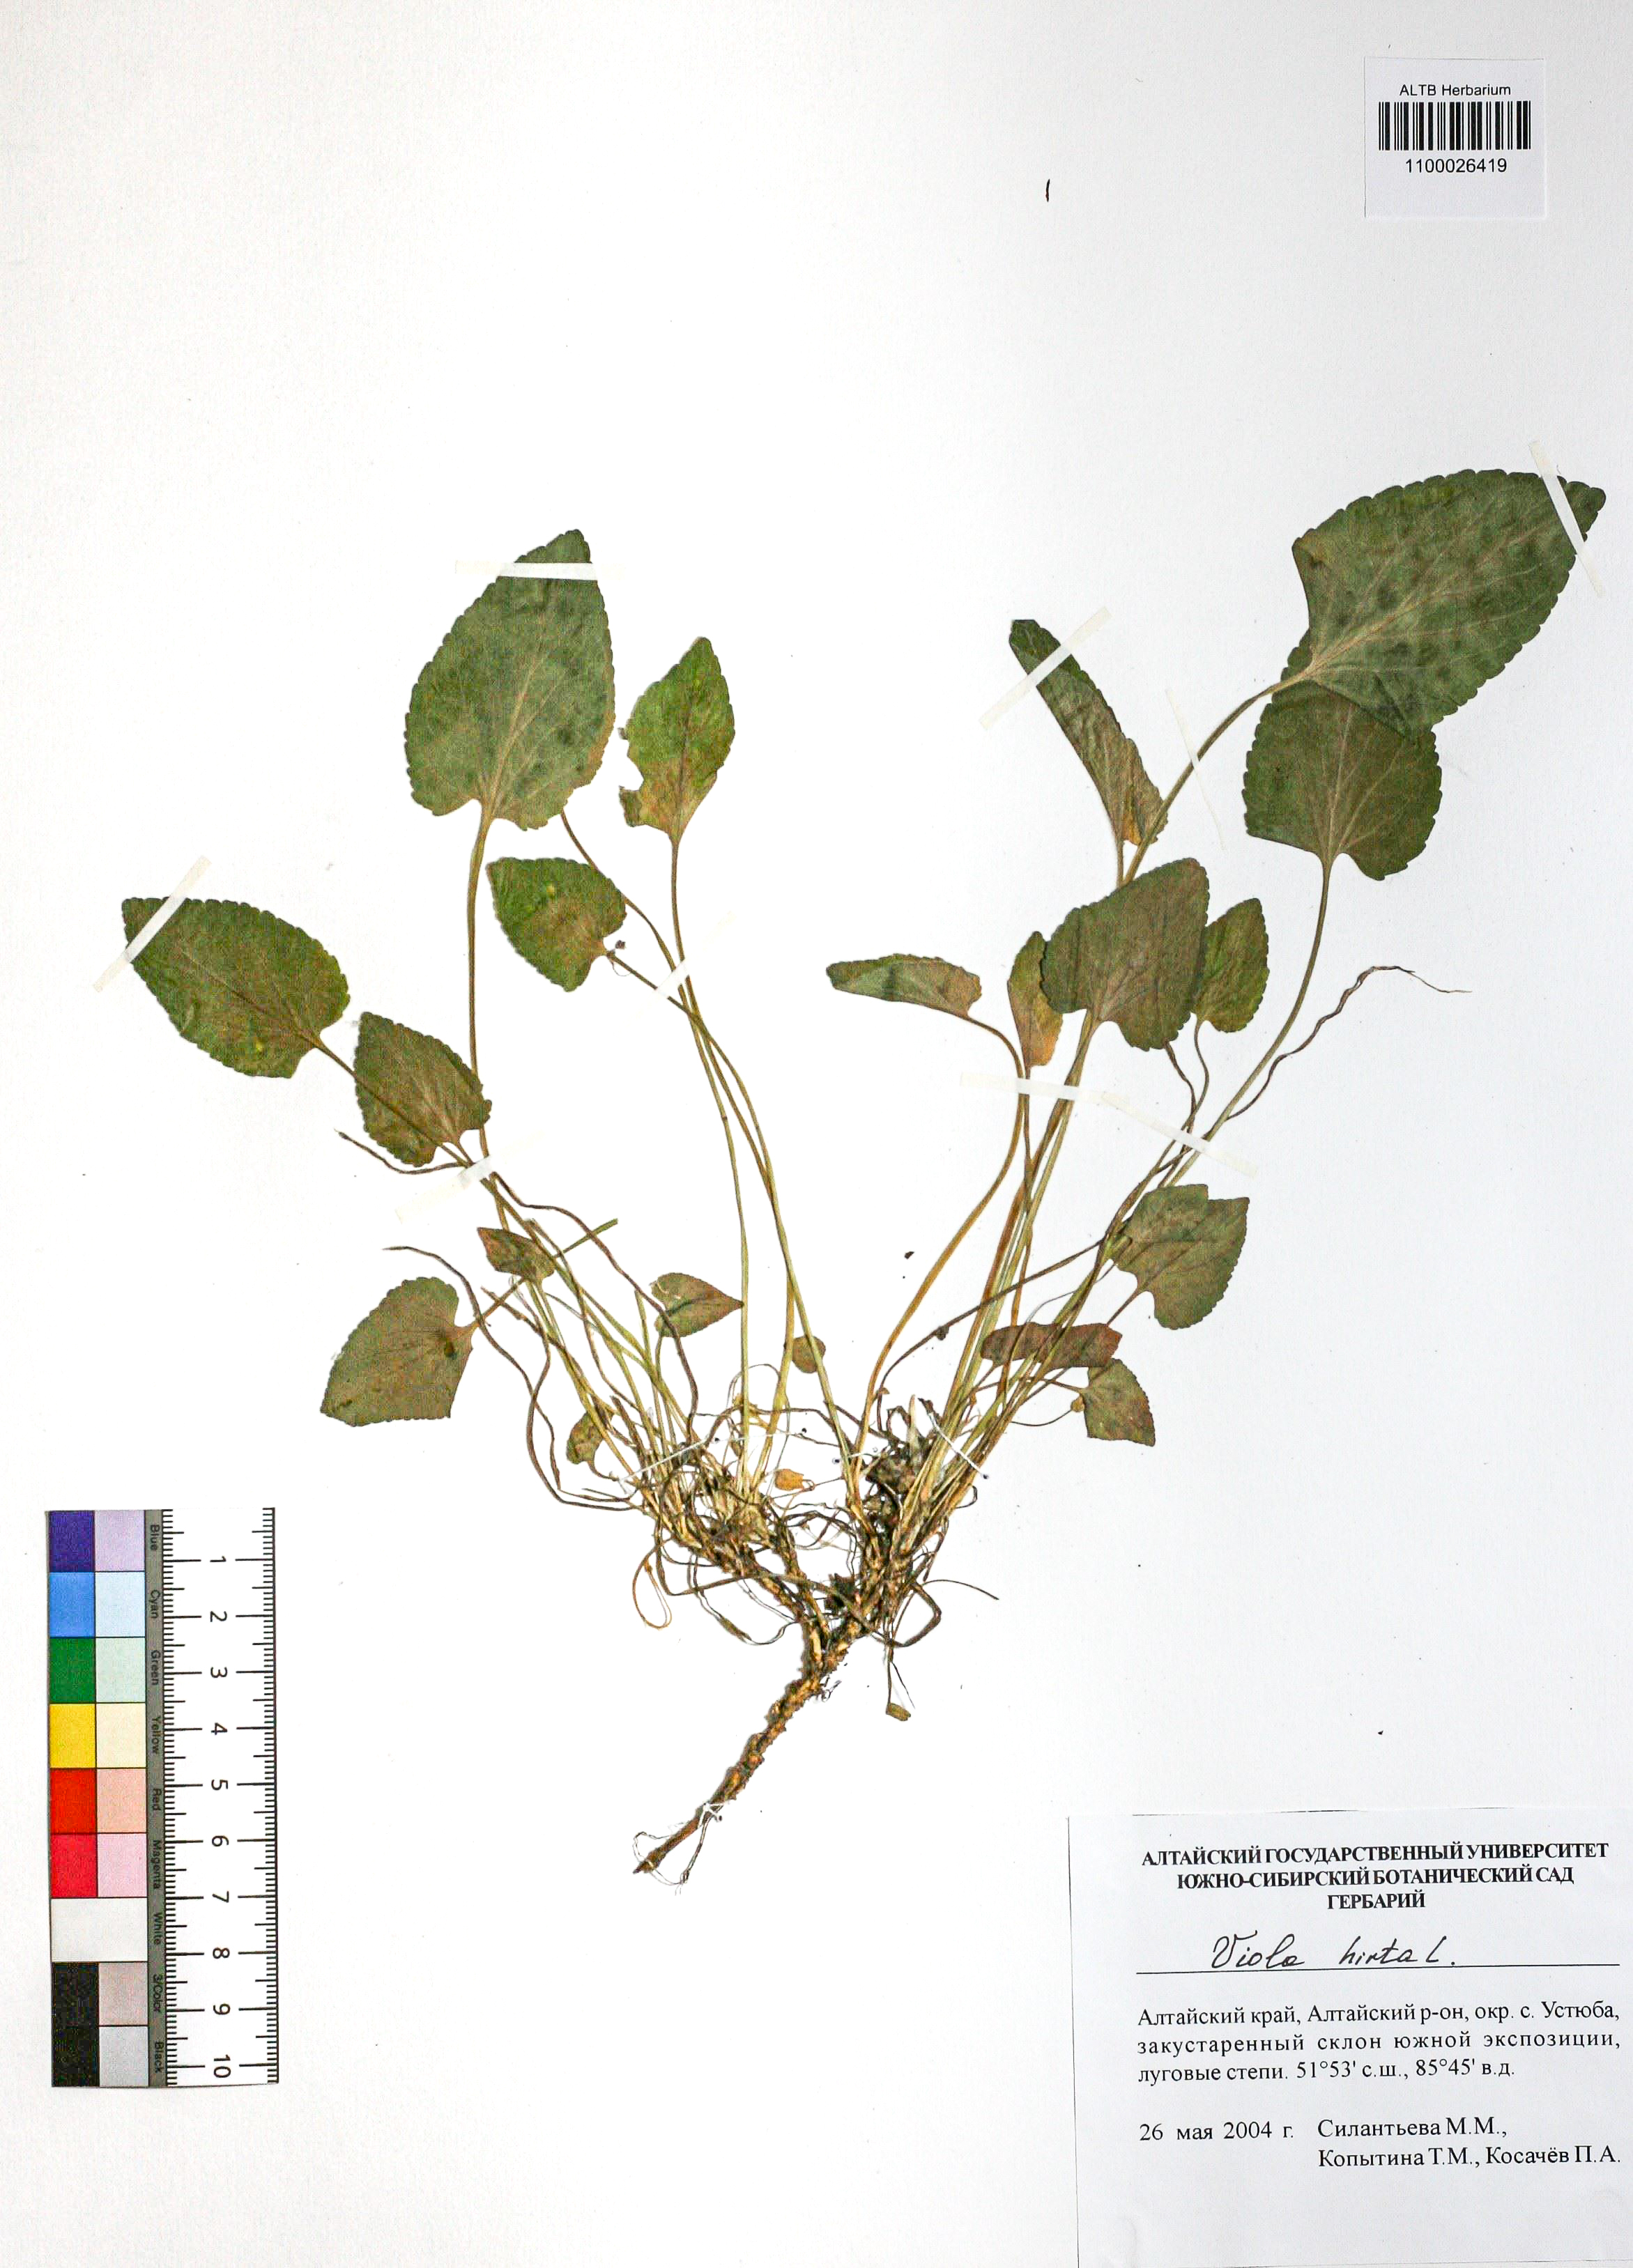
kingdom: Plantae
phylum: Tracheophyta
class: Magnoliopsida
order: Malpighiales
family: Violaceae
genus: Viola
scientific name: Viola hirta
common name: Hairy violet
